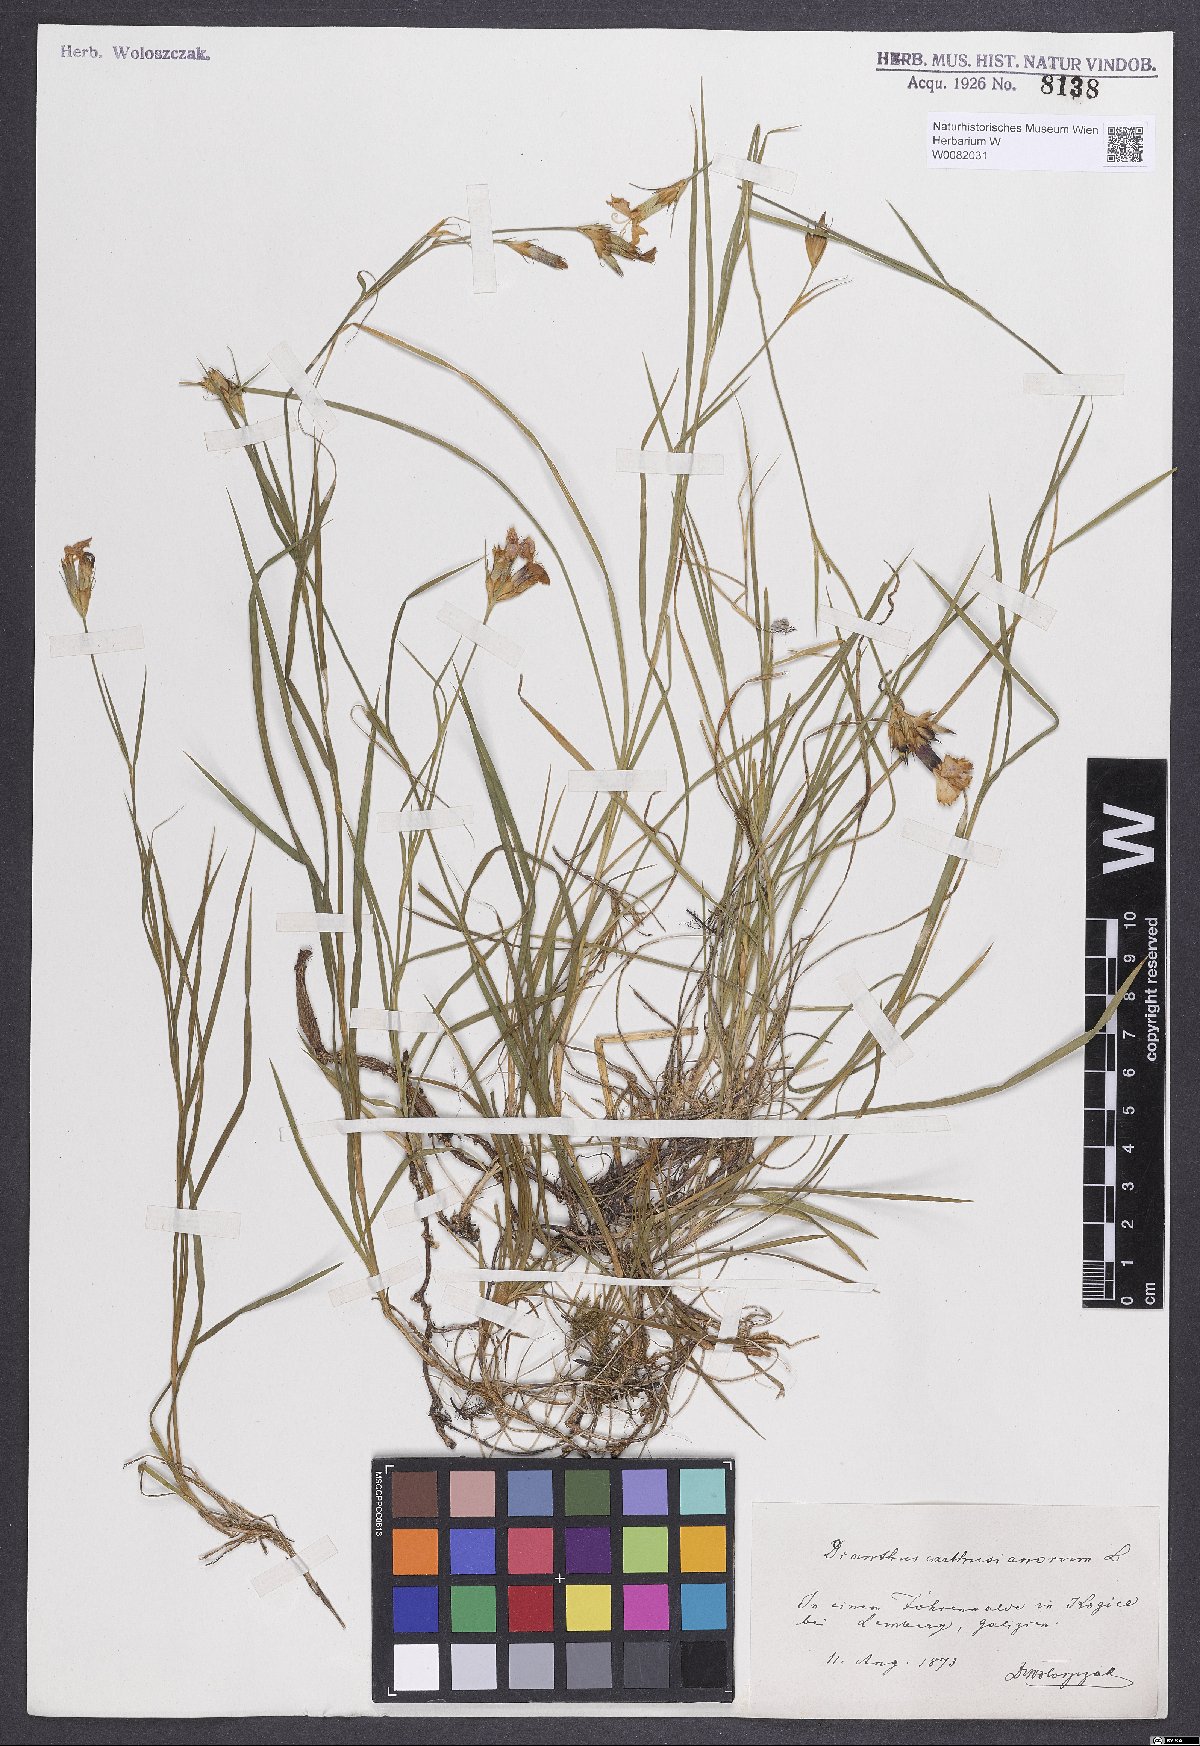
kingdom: Plantae
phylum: Tracheophyta
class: Magnoliopsida
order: Caryophyllales
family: Caryophyllaceae
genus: Dianthus
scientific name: Dianthus carthusianorum
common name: Carthusian pink
